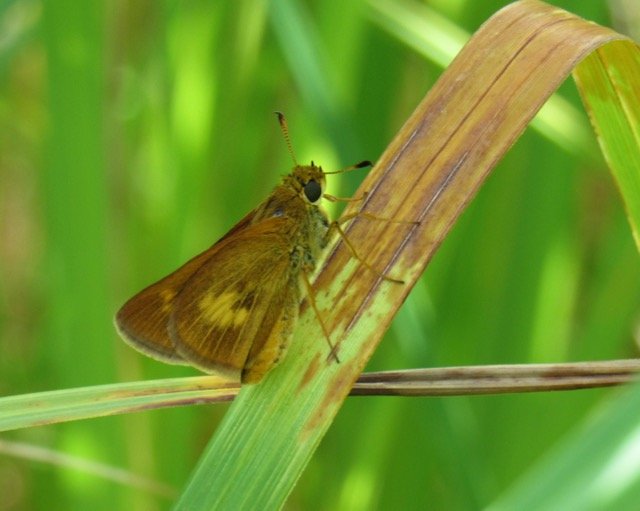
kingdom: Animalia
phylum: Arthropoda
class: Insecta
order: Lepidoptera
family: Hesperiidae
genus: Euphyes
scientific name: Euphyes conspicua
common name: Black Dash
